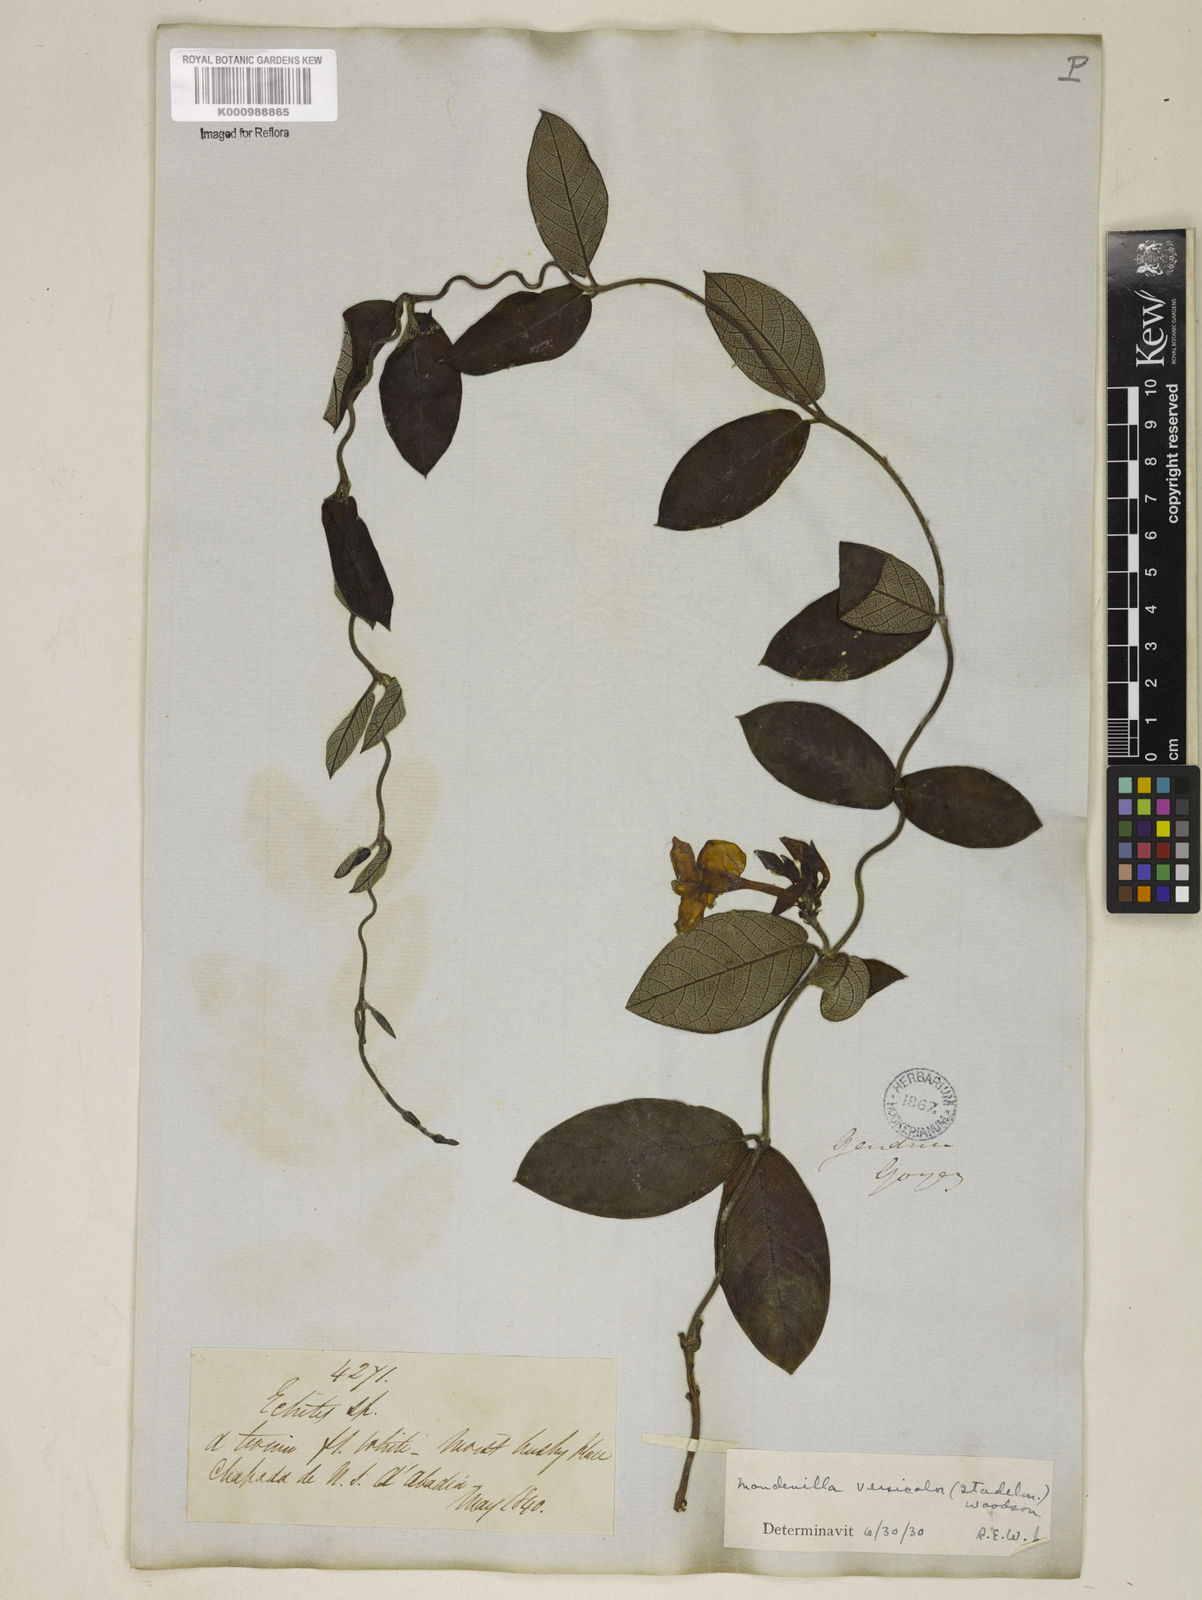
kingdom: Plantae
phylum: Tracheophyta
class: Magnoliopsida
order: Gentianales
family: Apocynaceae
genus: Mandevilla
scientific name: Mandevilla scabra
